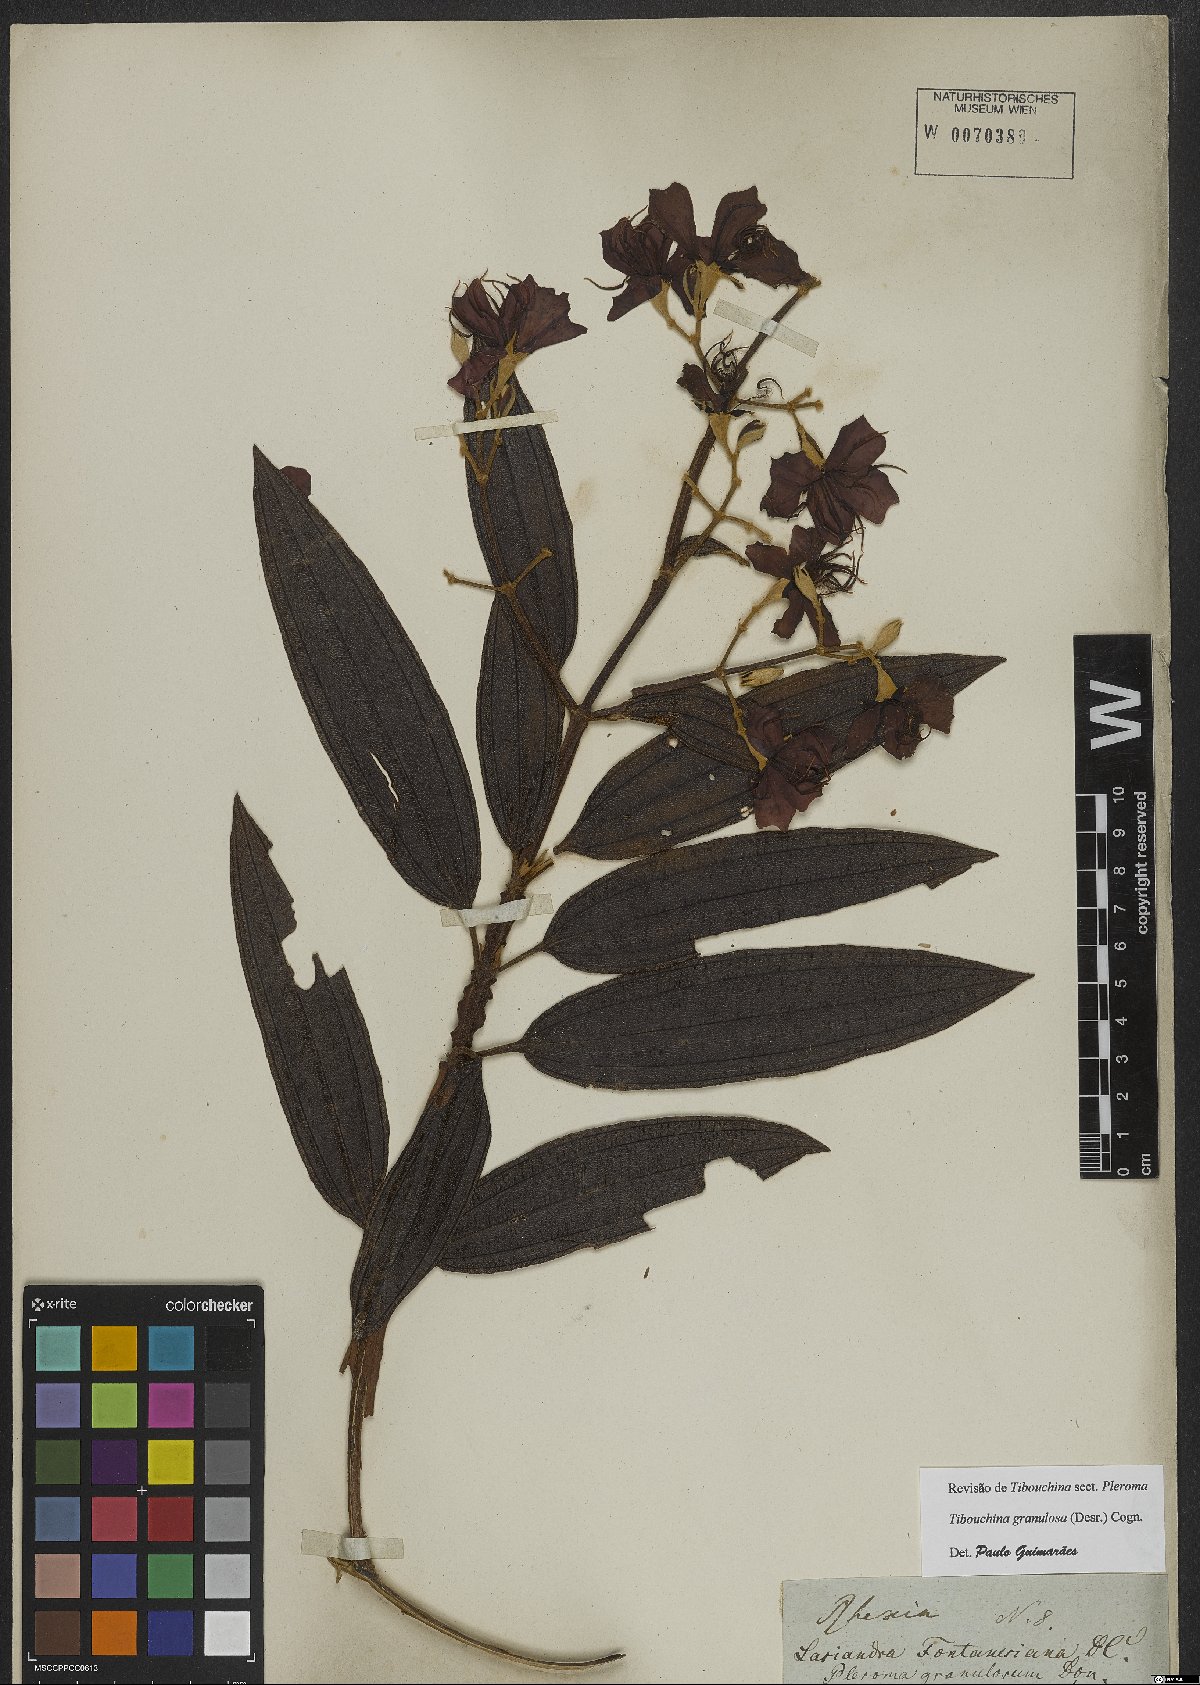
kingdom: Plantae
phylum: Tracheophyta
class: Magnoliopsida
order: Myrtales
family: Melastomataceae
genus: Pleroma
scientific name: Pleroma granulosum
